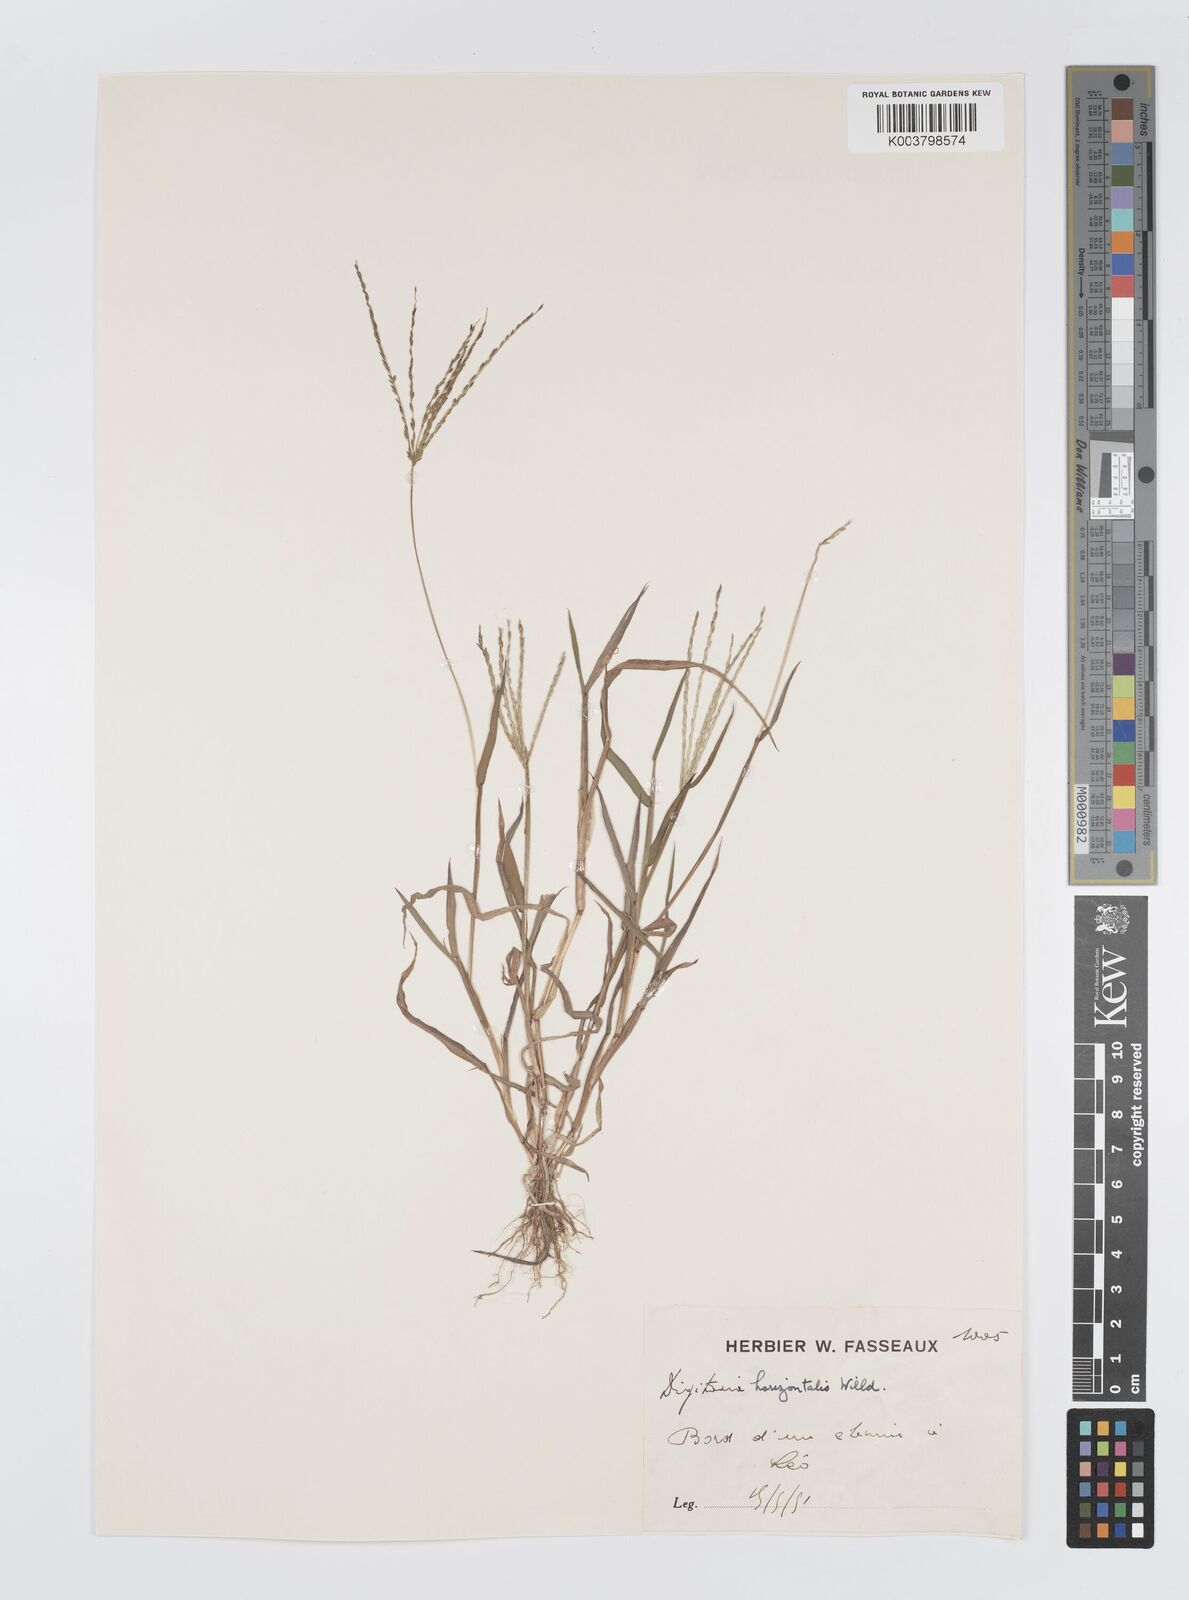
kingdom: Plantae
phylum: Tracheophyta
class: Liliopsida
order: Poales
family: Poaceae
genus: Digitaria
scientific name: Digitaria nuda
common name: Naked crabgrass
